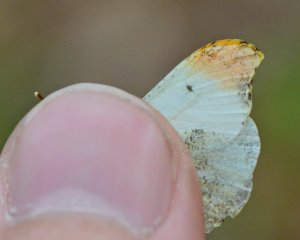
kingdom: Animalia
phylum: Arthropoda
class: Insecta
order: Lepidoptera
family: Pieridae
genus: Anthocharis
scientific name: Anthocharis midea
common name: Falcate Orangetip
